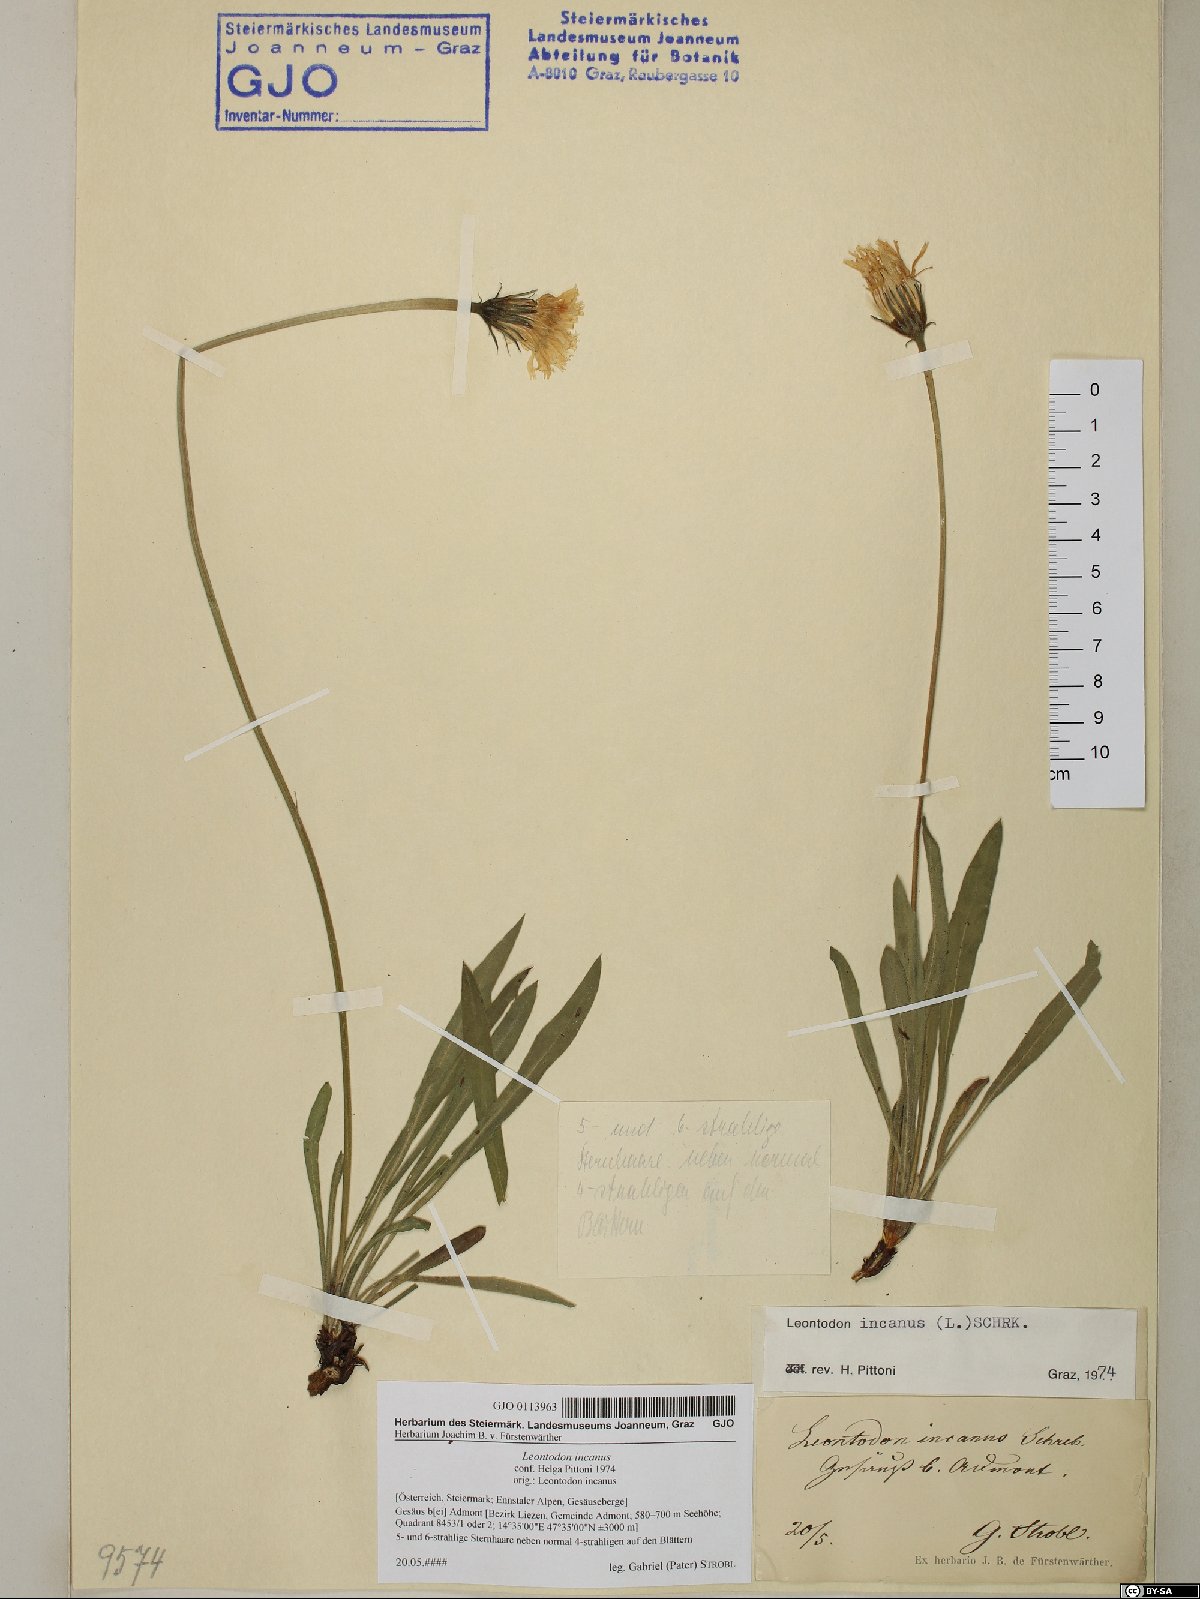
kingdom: Plantae
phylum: Tracheophyta
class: Magnoliopsida
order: Asterales
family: Asteraceae
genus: Leontodon
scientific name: Leontodon incanus
